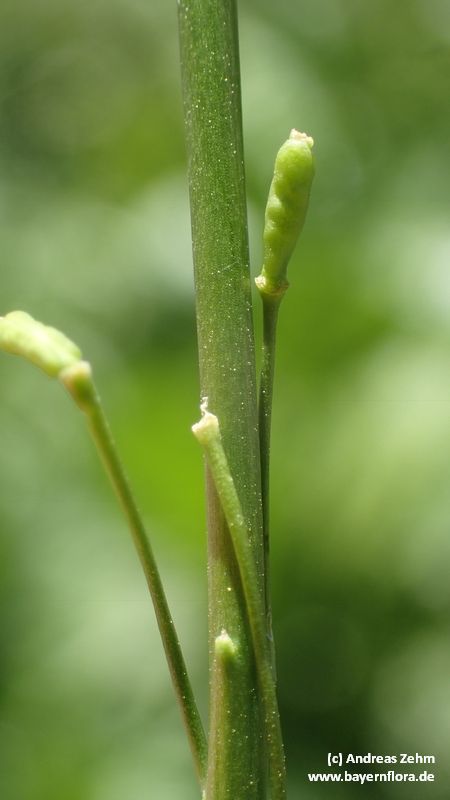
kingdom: Plantae
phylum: Tracheophyta
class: Magnoliopsida
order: Brassicales
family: Brassicaceae
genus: Armoracia
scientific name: Armoracia rusticana
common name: Horseradish
